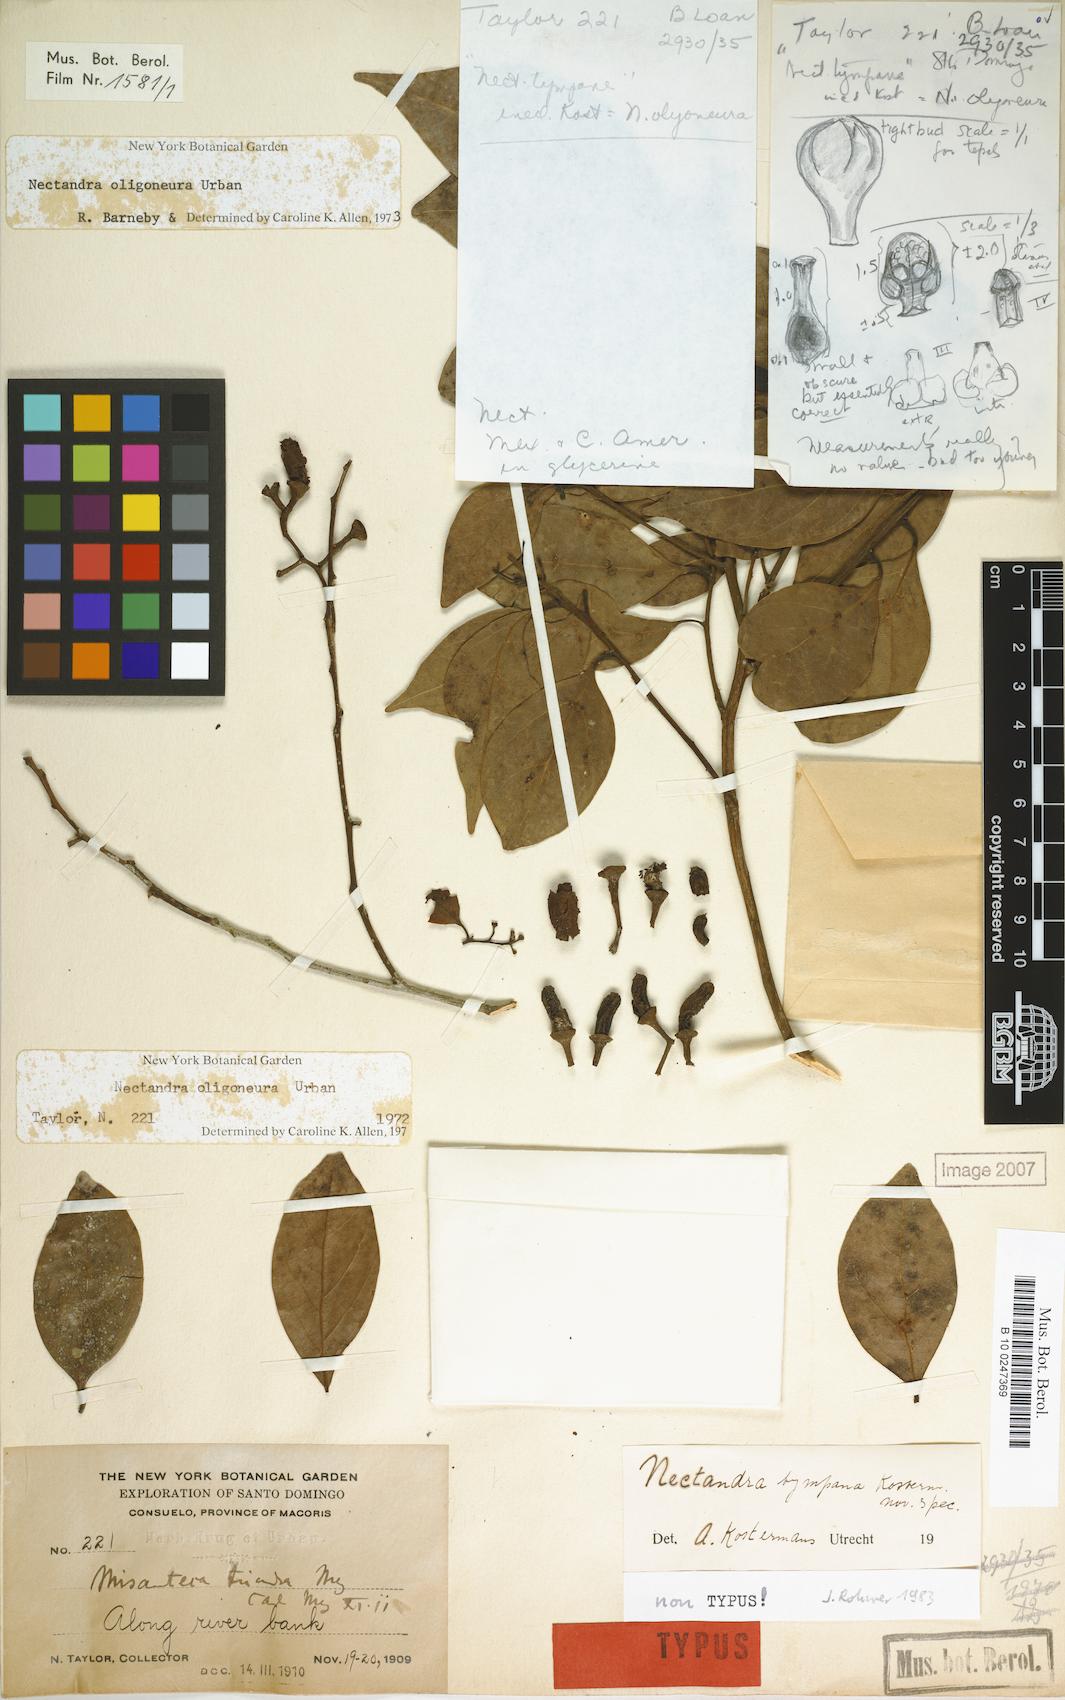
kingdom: Plantae
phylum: Tracheophyta
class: Magnoliopsida
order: Laurales
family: Lauraceae
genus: Nectandra
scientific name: Nectandra turbacensis
